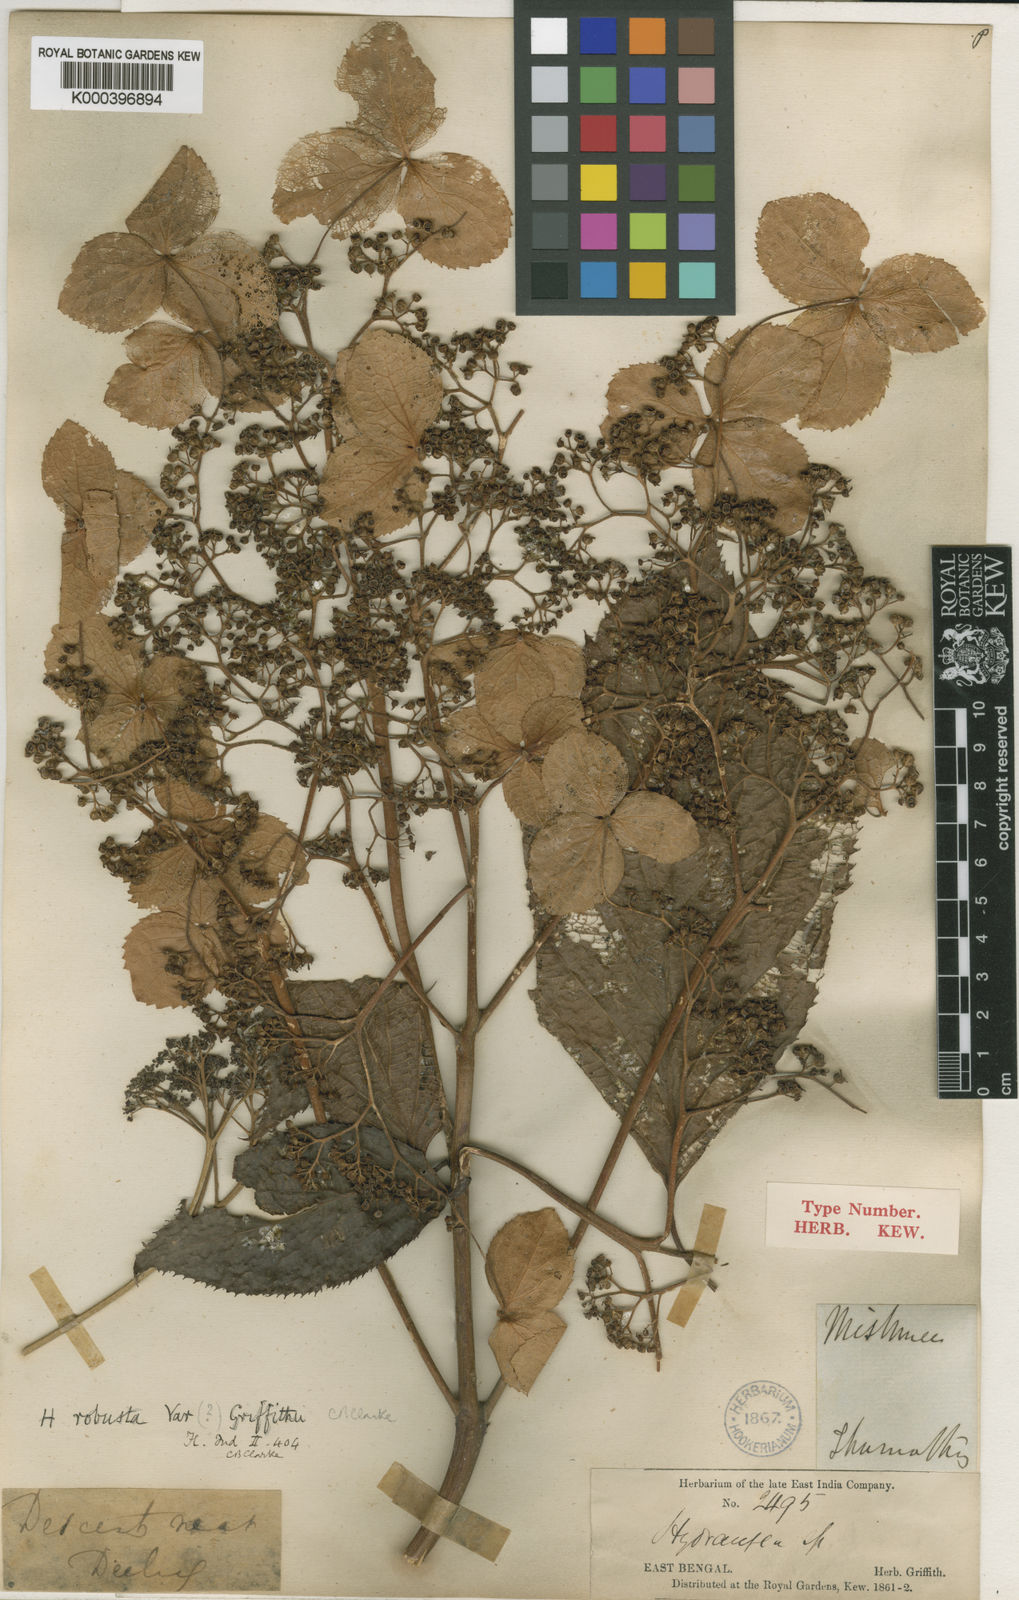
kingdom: Plantae
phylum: Tracheophyta
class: Magnoliopsida
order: Cornales
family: Hydrangeaceae
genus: Hydrangea
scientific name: Hydrangea aspera
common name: Rough-leaf hydrangea
